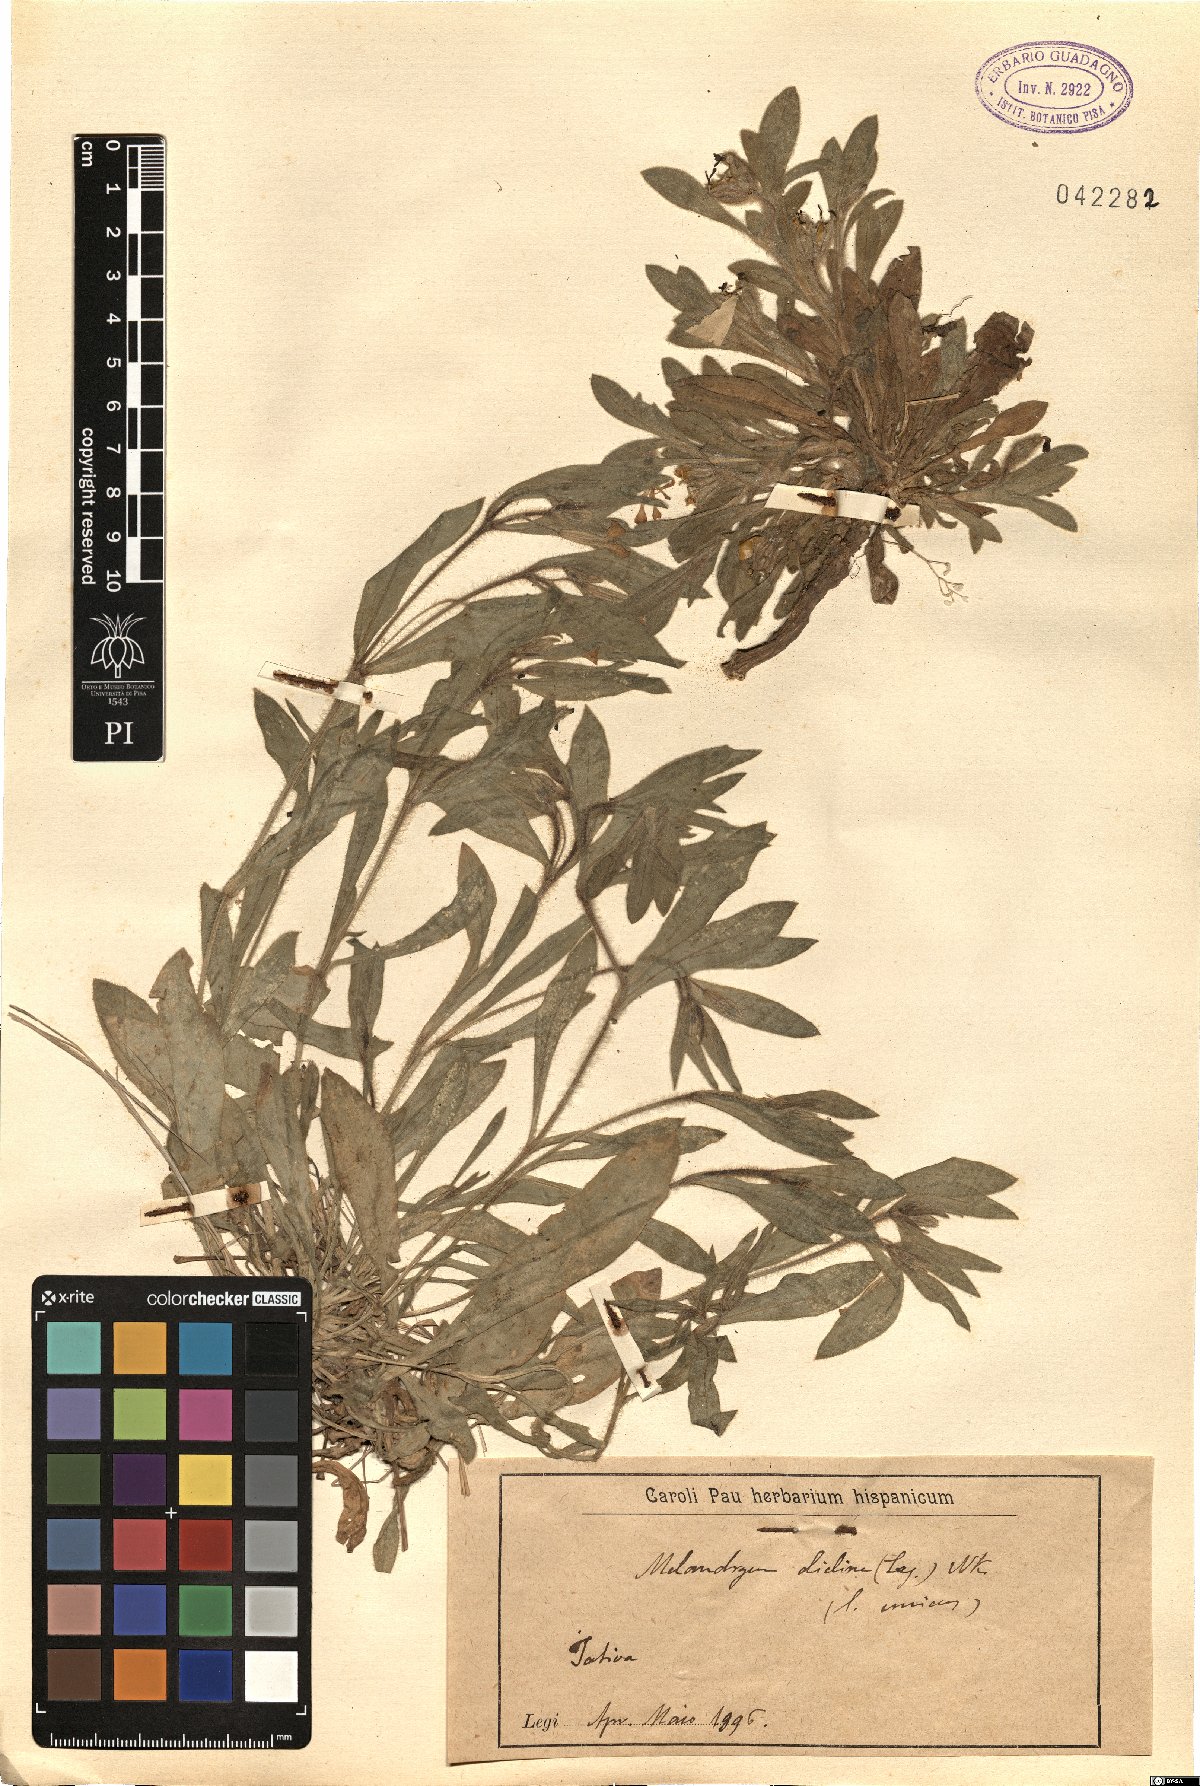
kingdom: Plantae
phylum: Tracheophyta
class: Magnoliopsida
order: Caryophyllales
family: Caryophyllaceae
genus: Silene
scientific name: Silene diclinis
